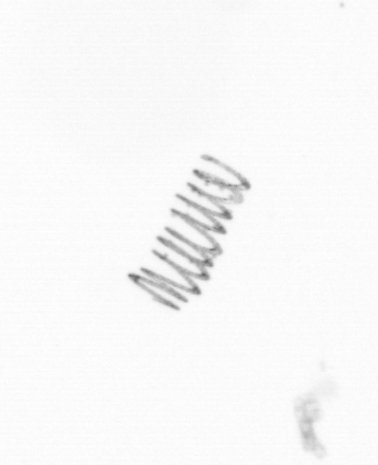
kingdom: Chromista
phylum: Ochrophyta
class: Bacillariophyceae
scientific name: Bacillariophyceae
